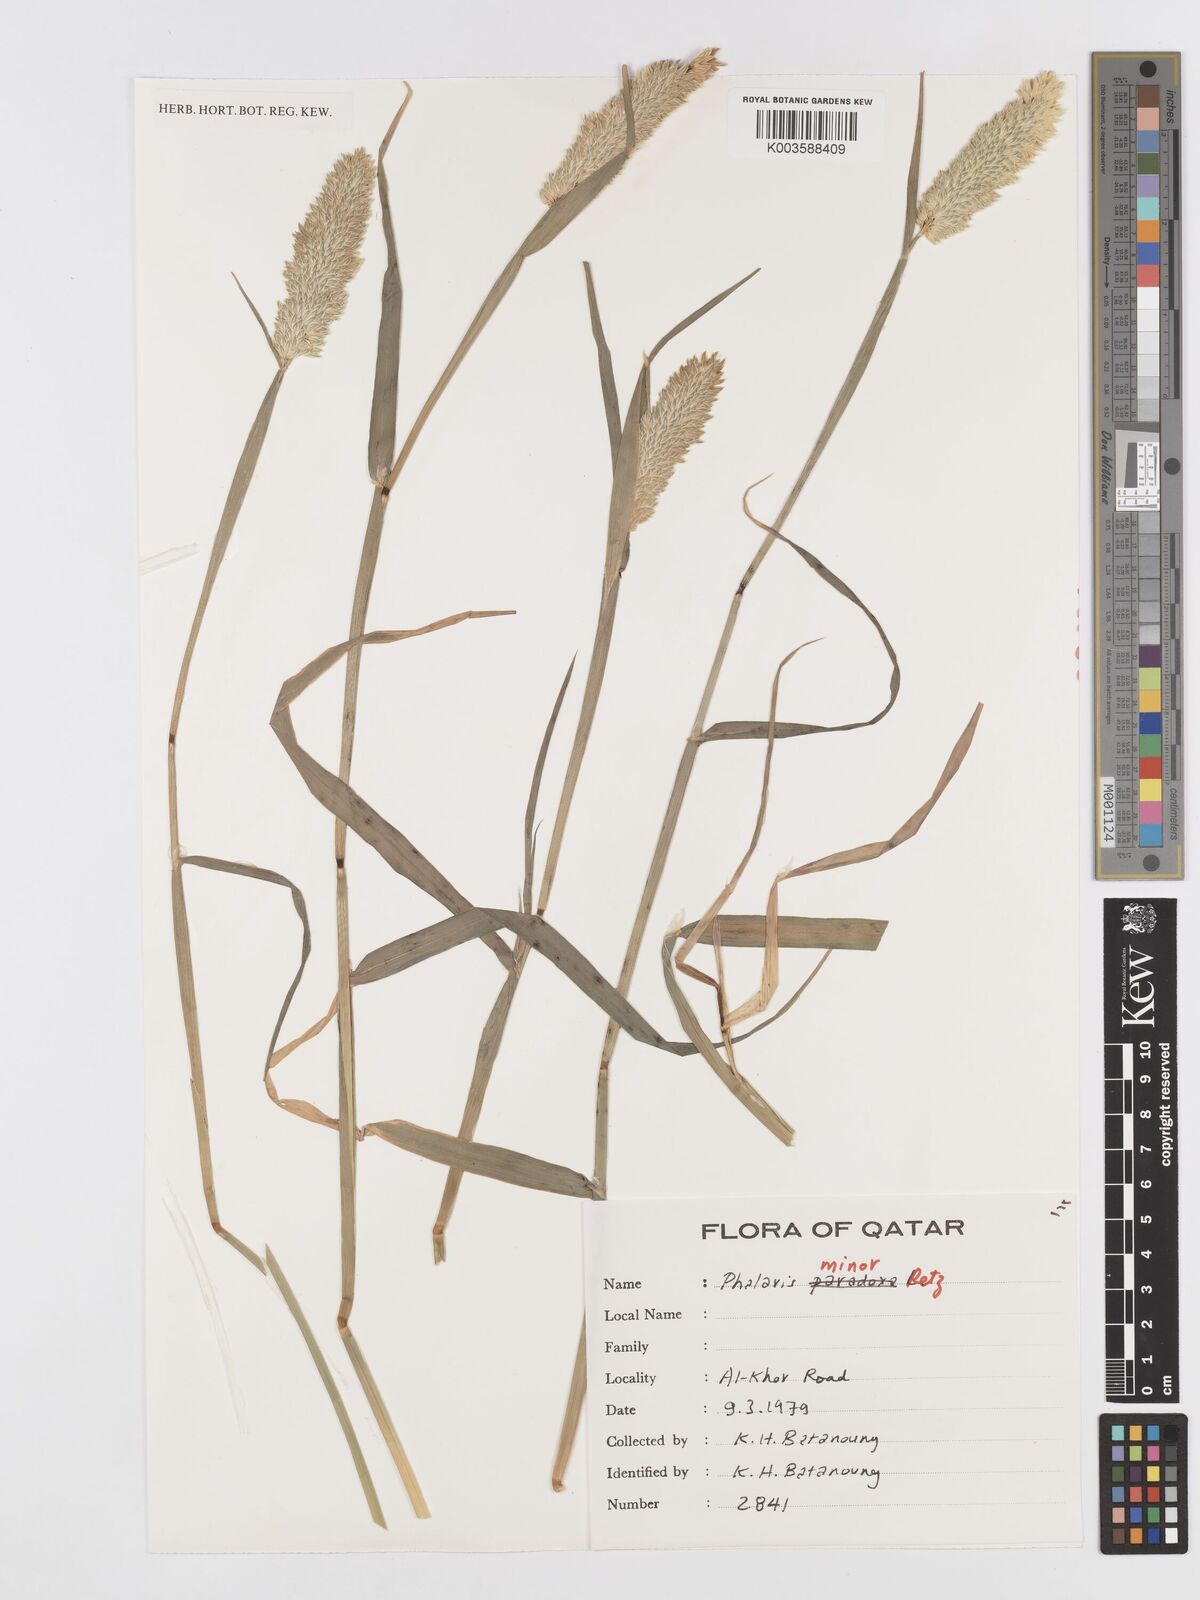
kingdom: Plantae
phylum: Tracheophyta
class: Liliopsida
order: Poales
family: Poaceae
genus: Phalaris
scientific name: Phalaris minor
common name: Littleseed canarygrass
